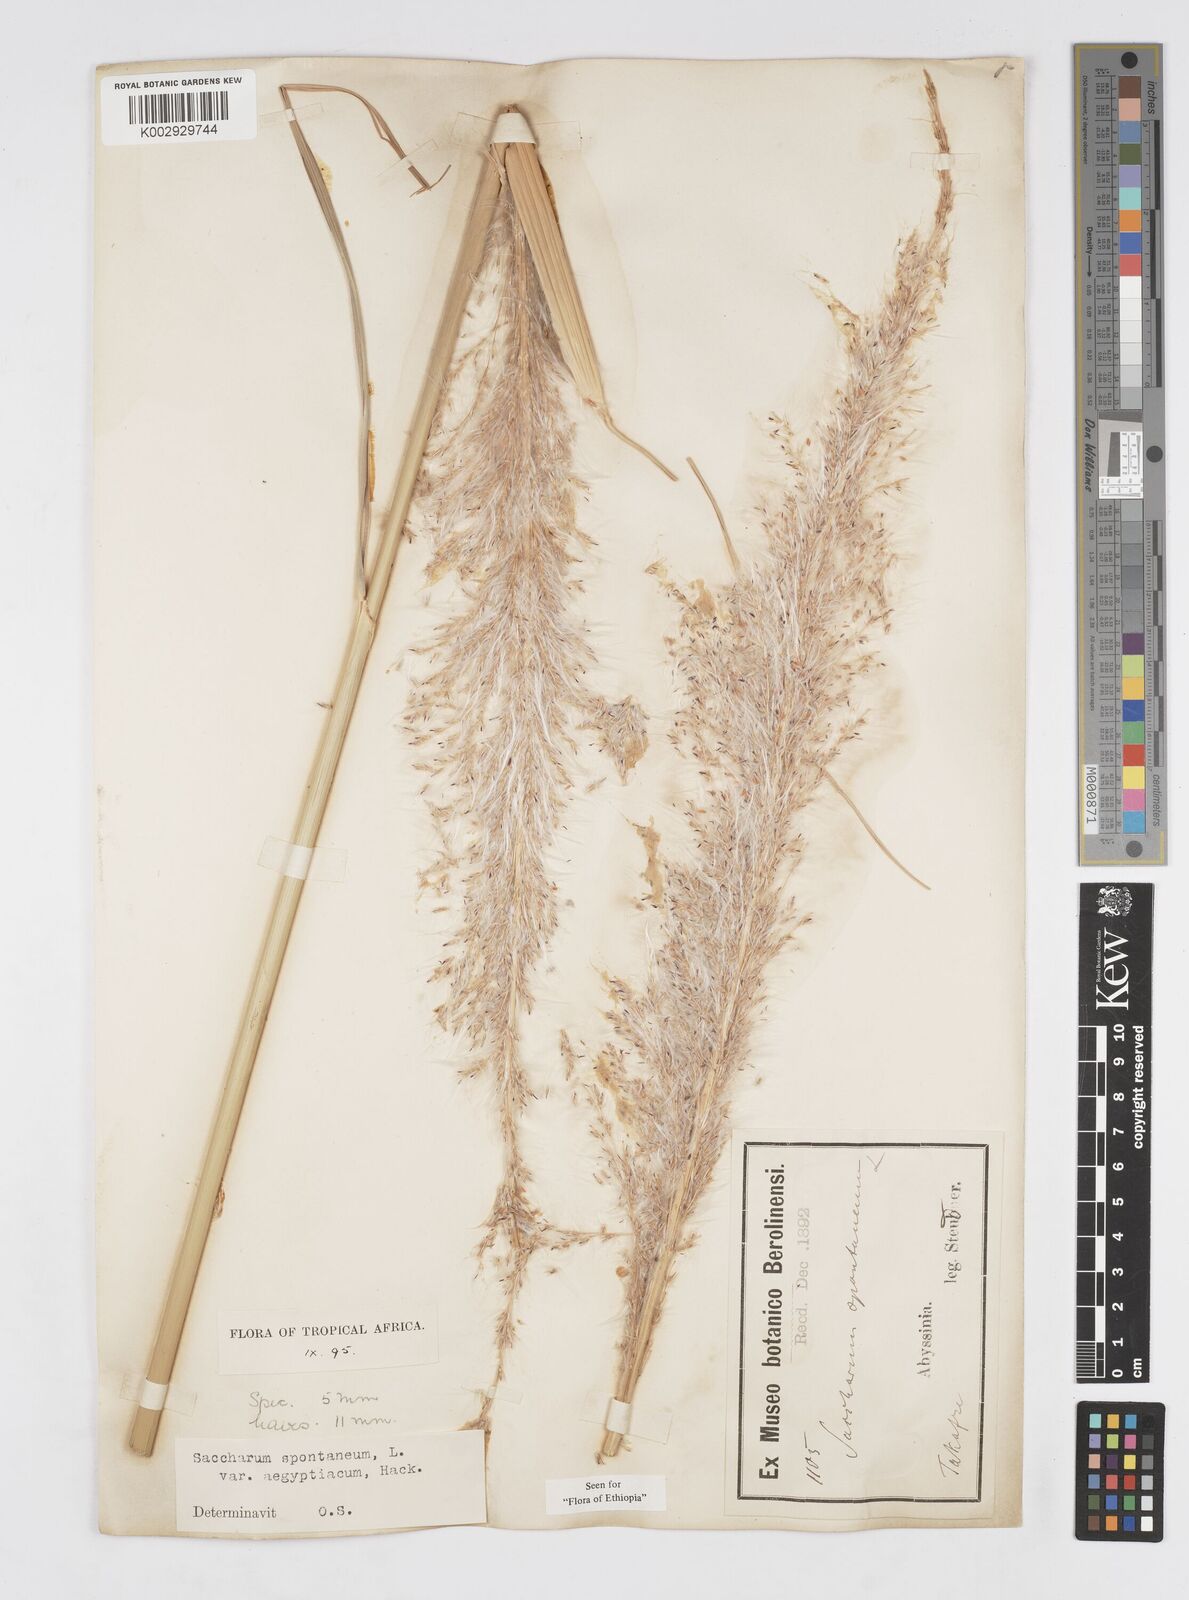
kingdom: Plantae
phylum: Tracheophyta
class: Liliopsida
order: Poales
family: Poaceae
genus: Saccharum
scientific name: Saccharum spontaneum
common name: Wild sugarcane
